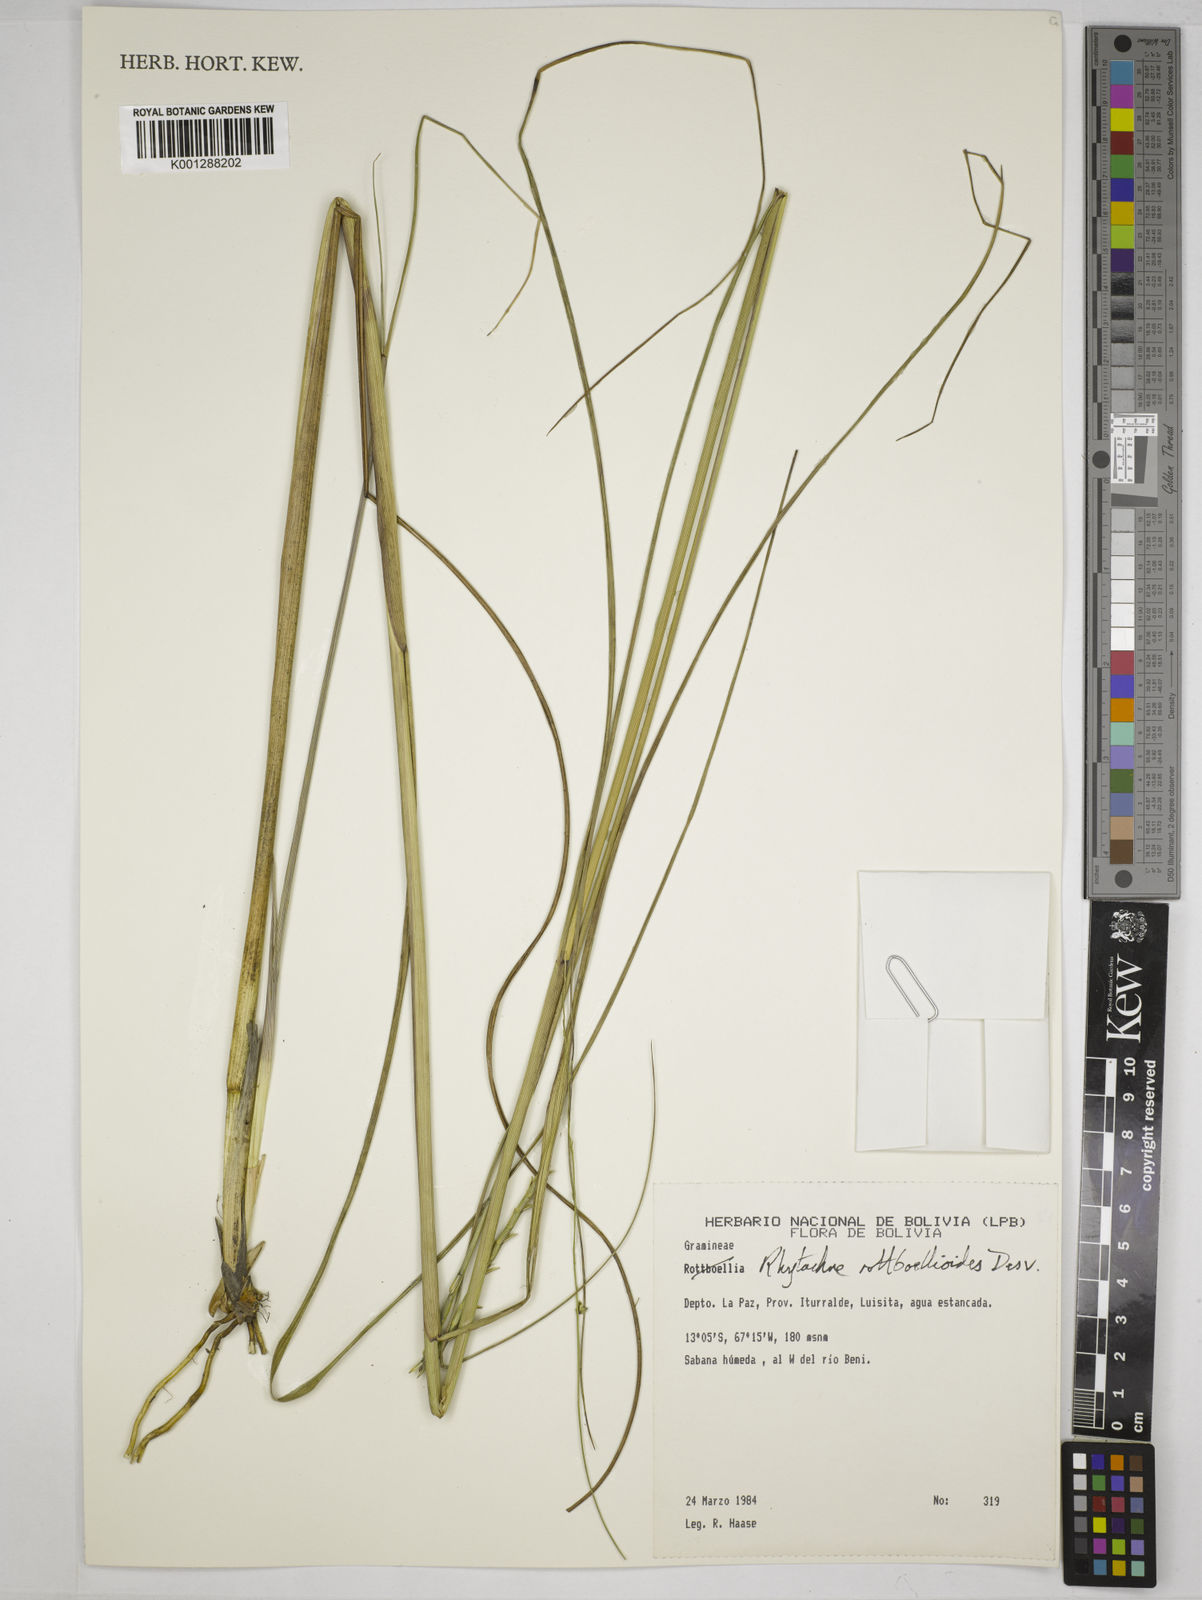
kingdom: Plantae
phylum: Tracheophyta
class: Liliopsida
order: Poales
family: Poaceae
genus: Rhytachne
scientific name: Rhytachne rottboellioides
